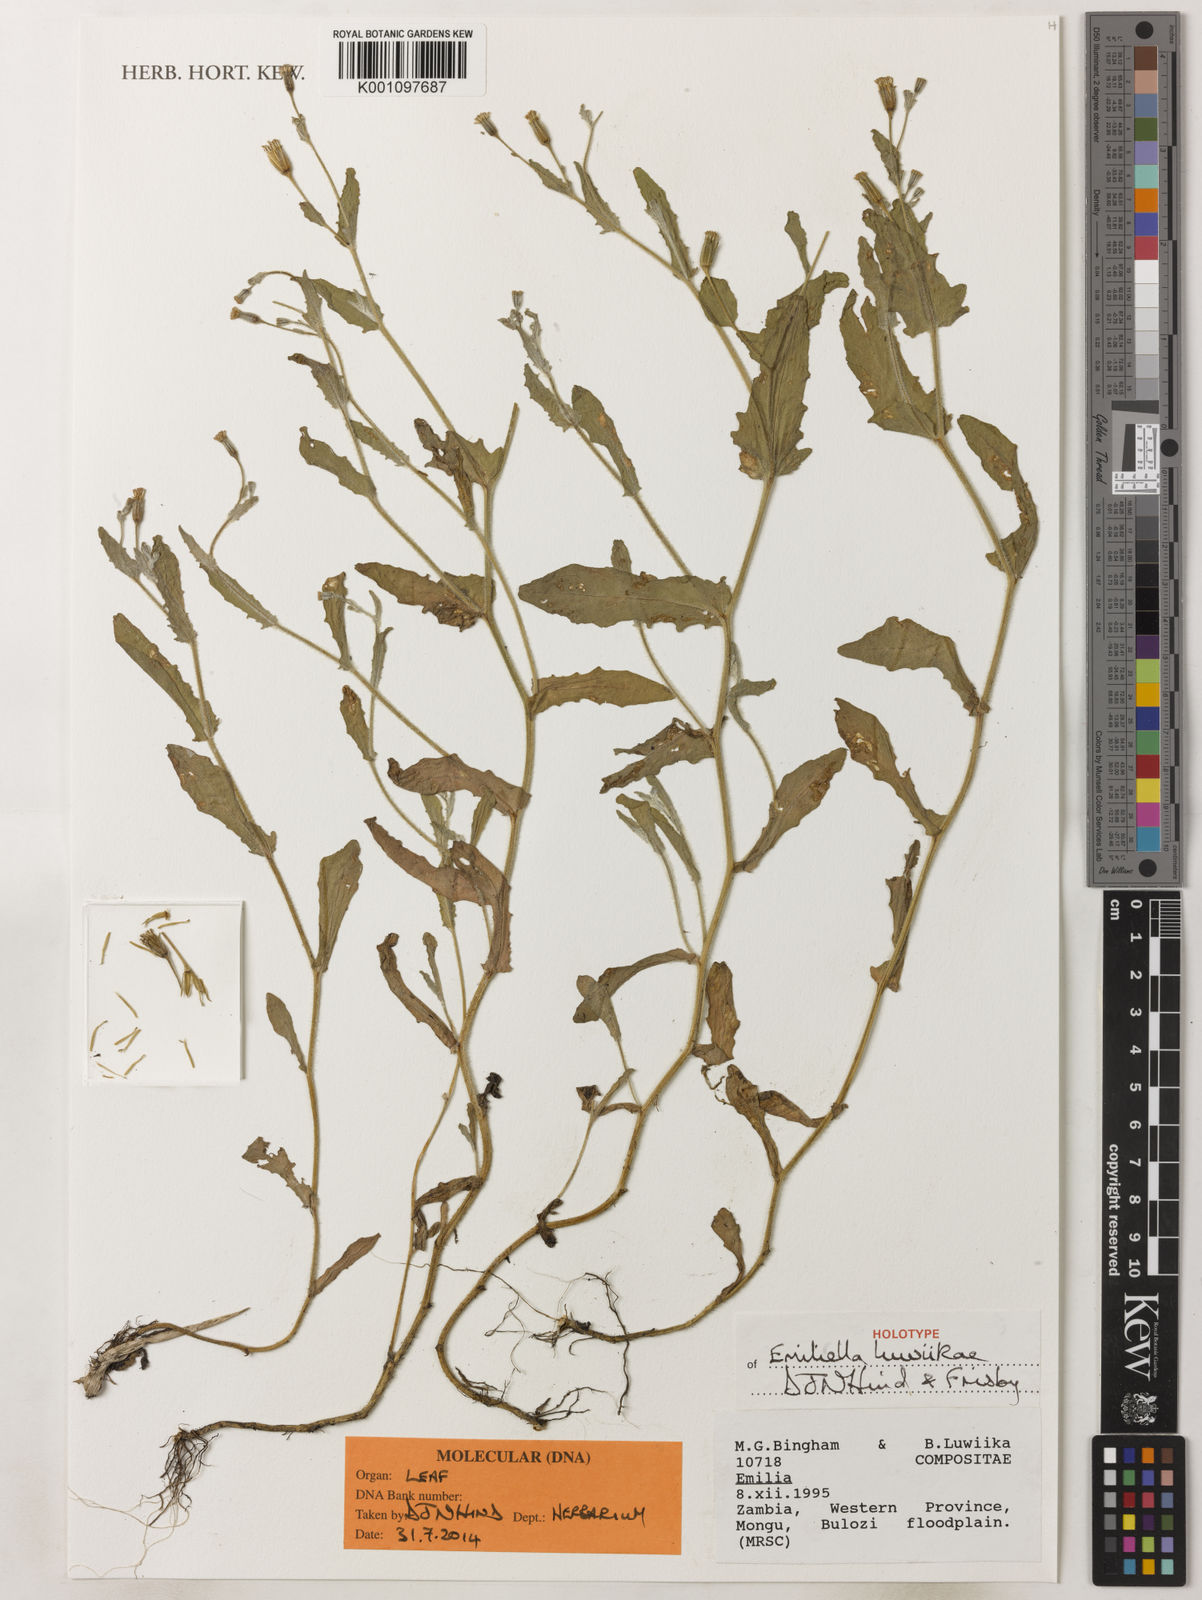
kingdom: Plantae
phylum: Tracheophyta
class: Magnoliopsida
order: Asterales
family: Asteraceae
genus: Emilia
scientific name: Emilia luwiikae
